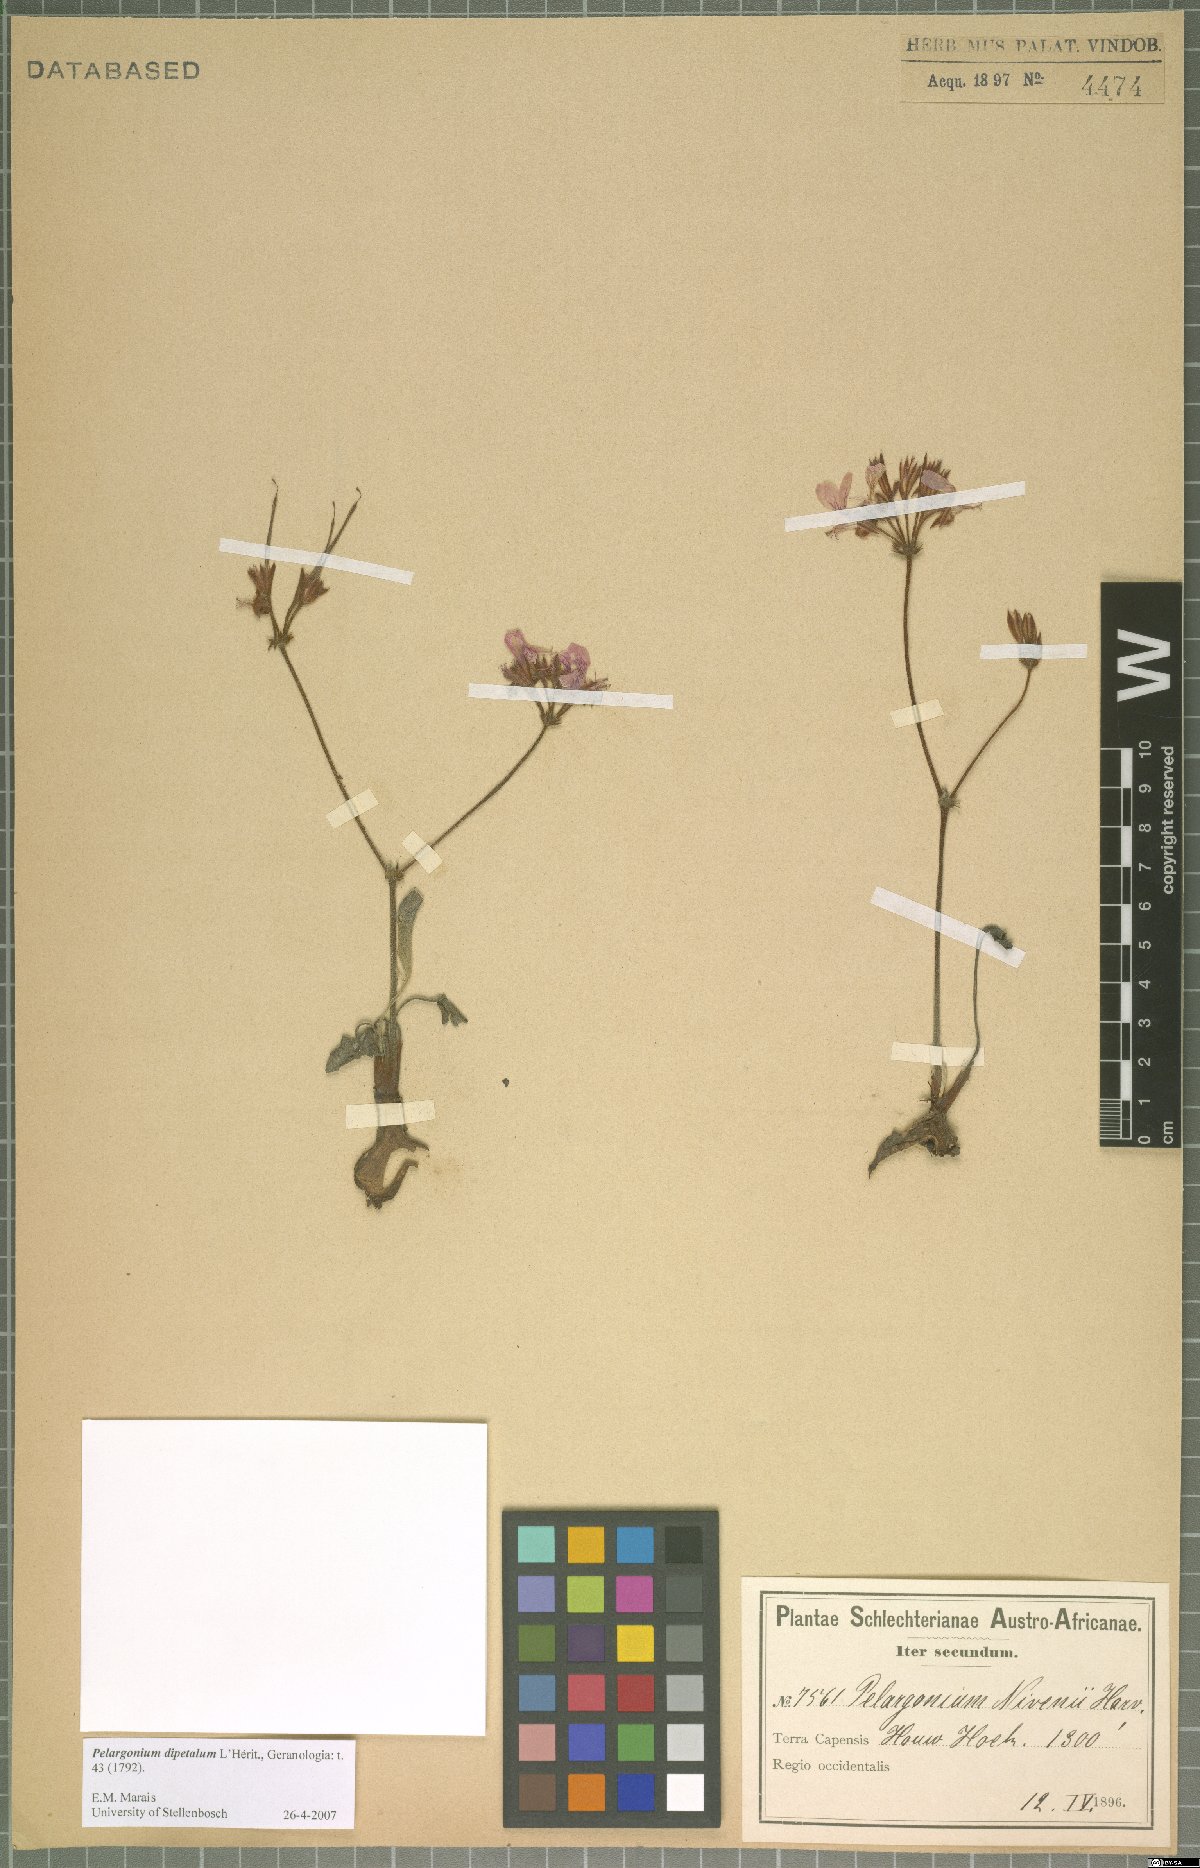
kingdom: Plantae
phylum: Tracheophyta
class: Magnoliopsida
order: Geraniales
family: Geraniaceae
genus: Pelargonium
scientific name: Pelargonium dipetalum
